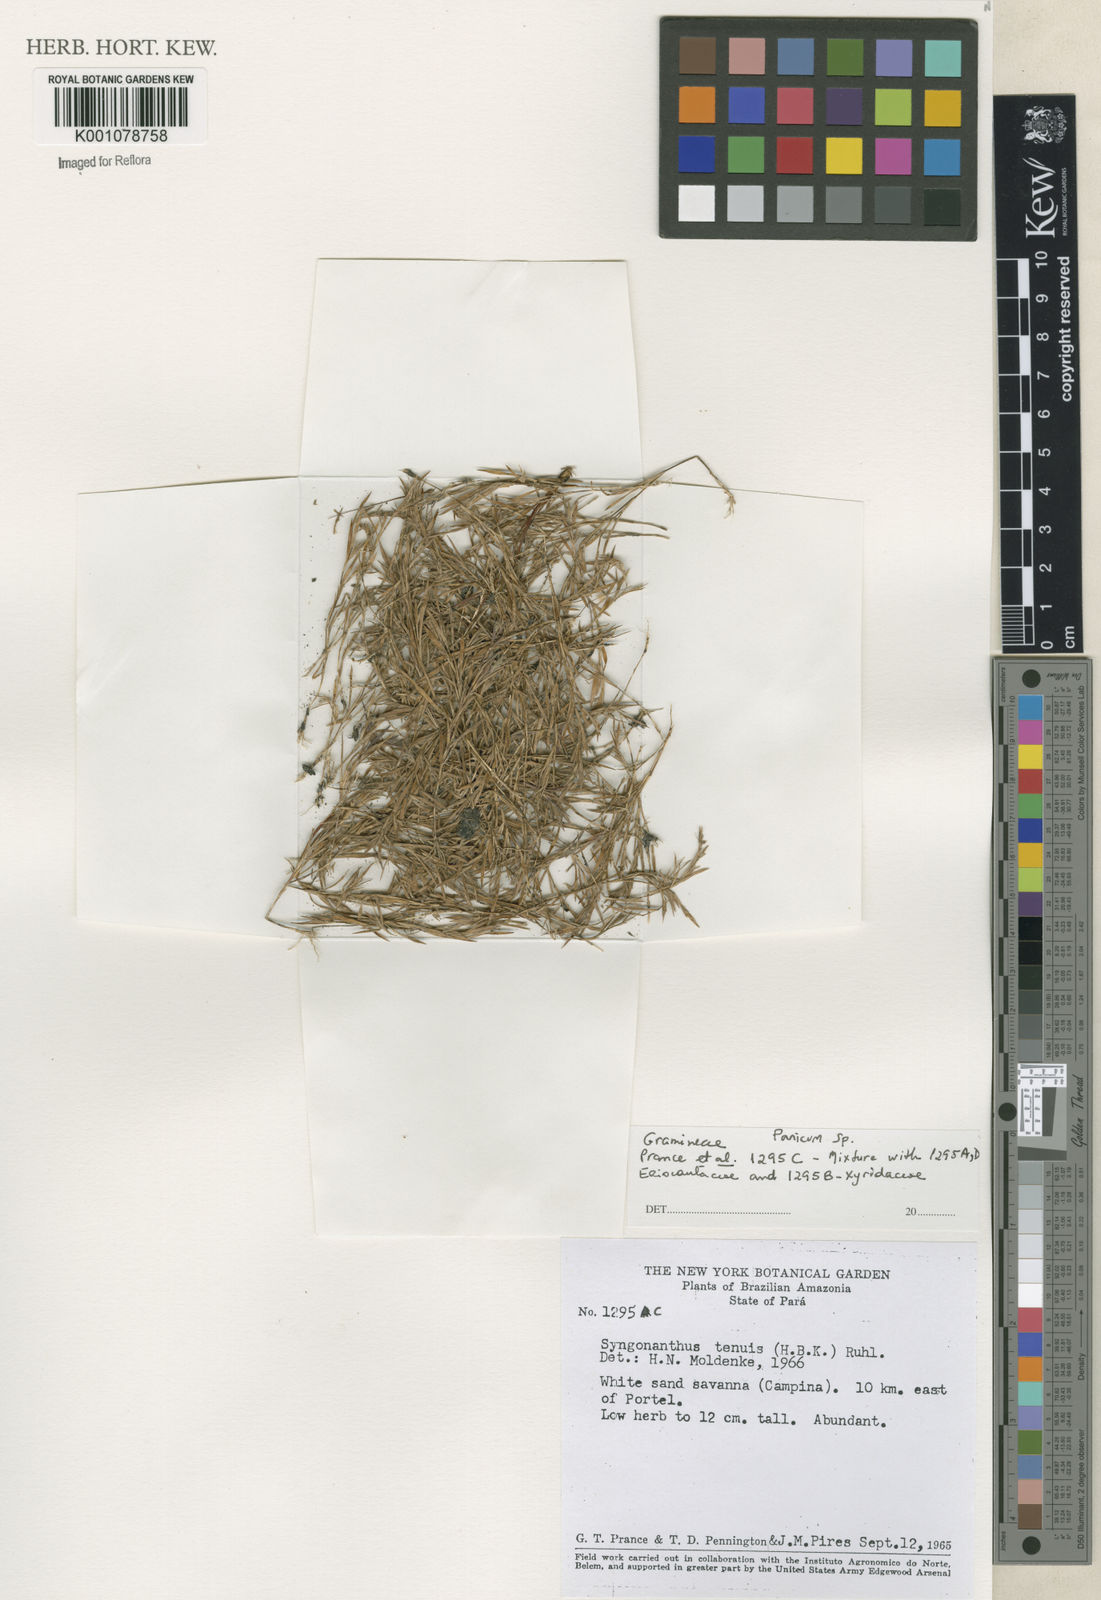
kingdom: Plantae
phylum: Tracheophyta
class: Liliopsida
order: Poales
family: Poaceae
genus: Panicum
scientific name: Panicum
